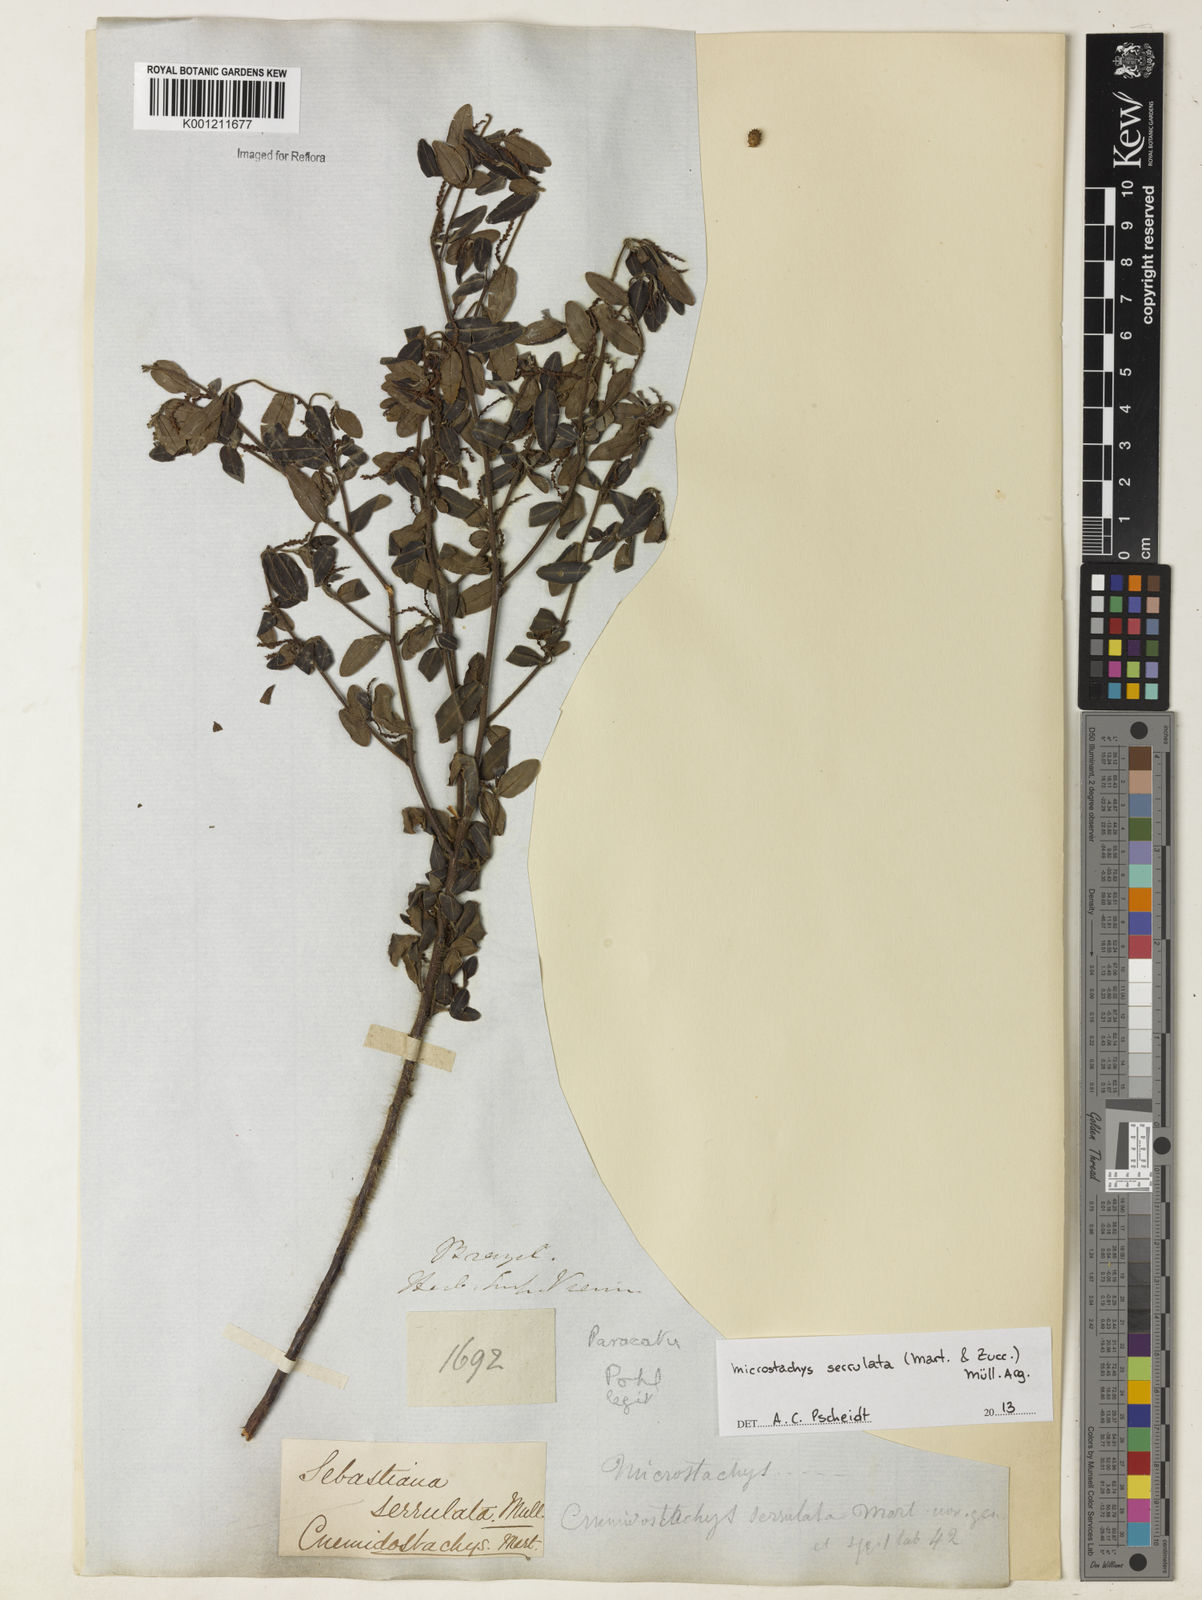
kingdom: Plantae
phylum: Tracheophyta
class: Magnoliopsida
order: Malpighiales
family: Euphorbiaceae
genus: Microstachys
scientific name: Microstachys
